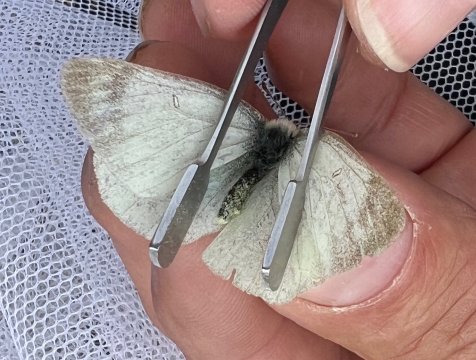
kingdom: Animalia
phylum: Arthropoda
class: Insecta
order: Lepidoptera
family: Pieridae
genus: Colias
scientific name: Colias palaeno
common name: Chippewa Sulphur
